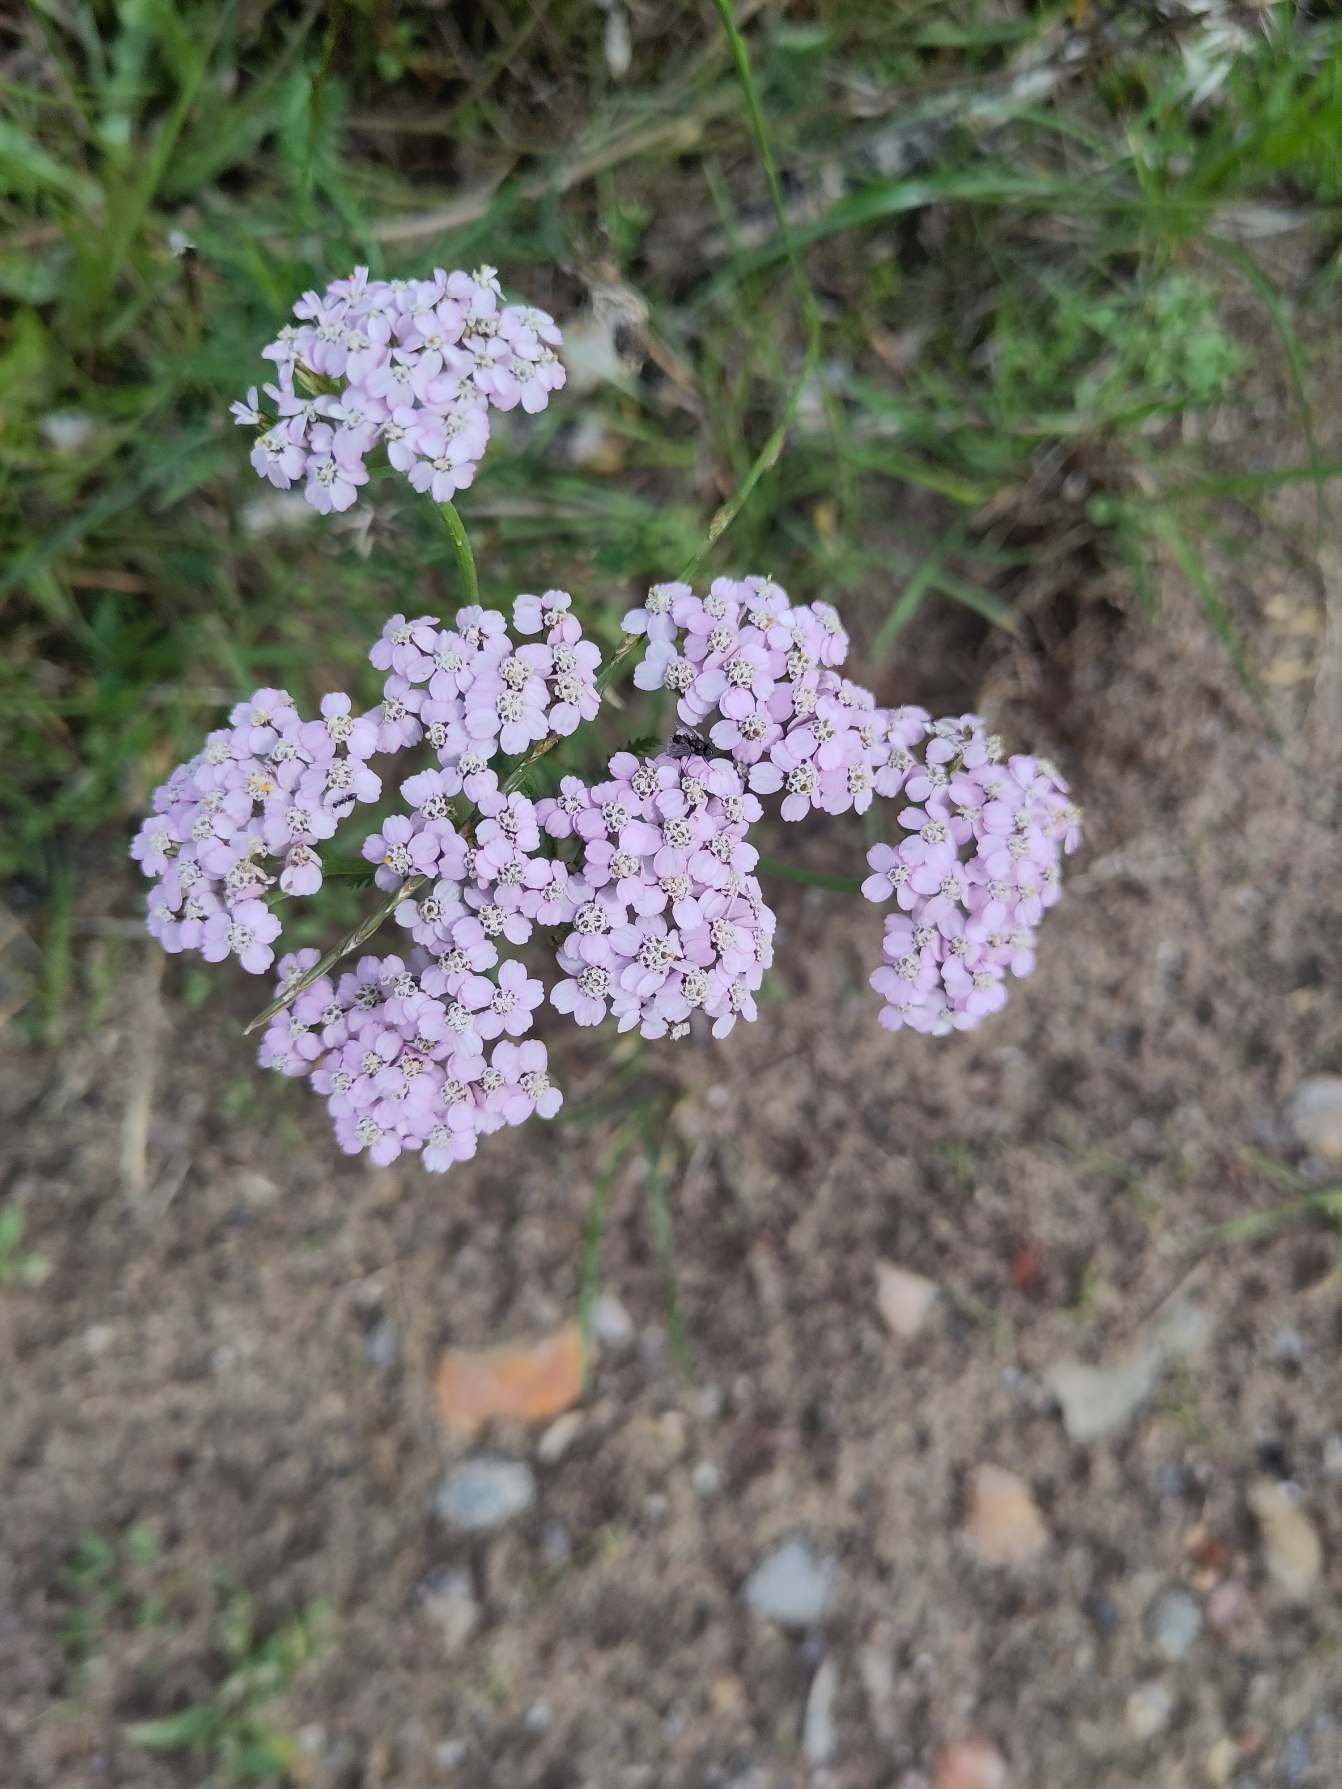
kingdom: Plantae
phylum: Tracheophyta
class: Magnoliopsida
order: Asterales
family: Asteraceae
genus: Achillea
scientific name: Achillea millefolium
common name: Almindelig røllike
